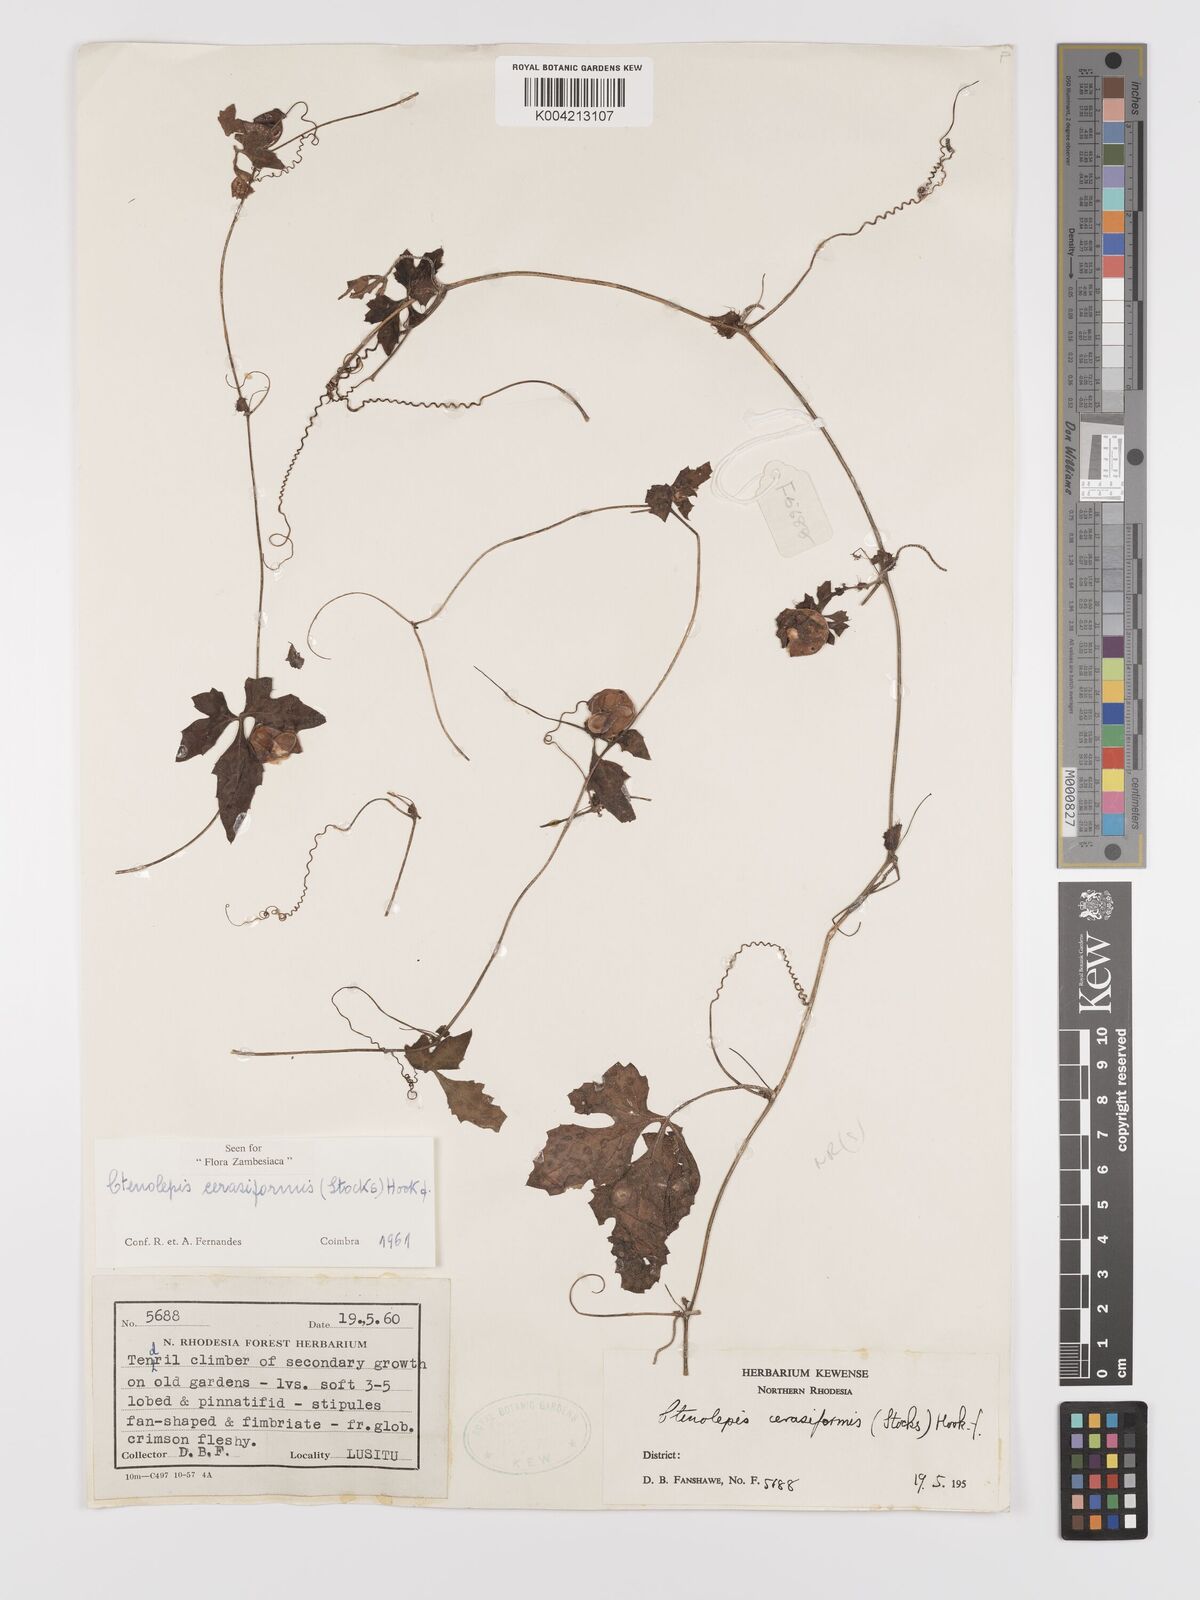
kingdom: Plantae
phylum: Tracheophyta
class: Magnoliopsida
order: Cucurbitales
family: Cucurbitaceae
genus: Blastania
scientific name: Blastania cerasiformis
